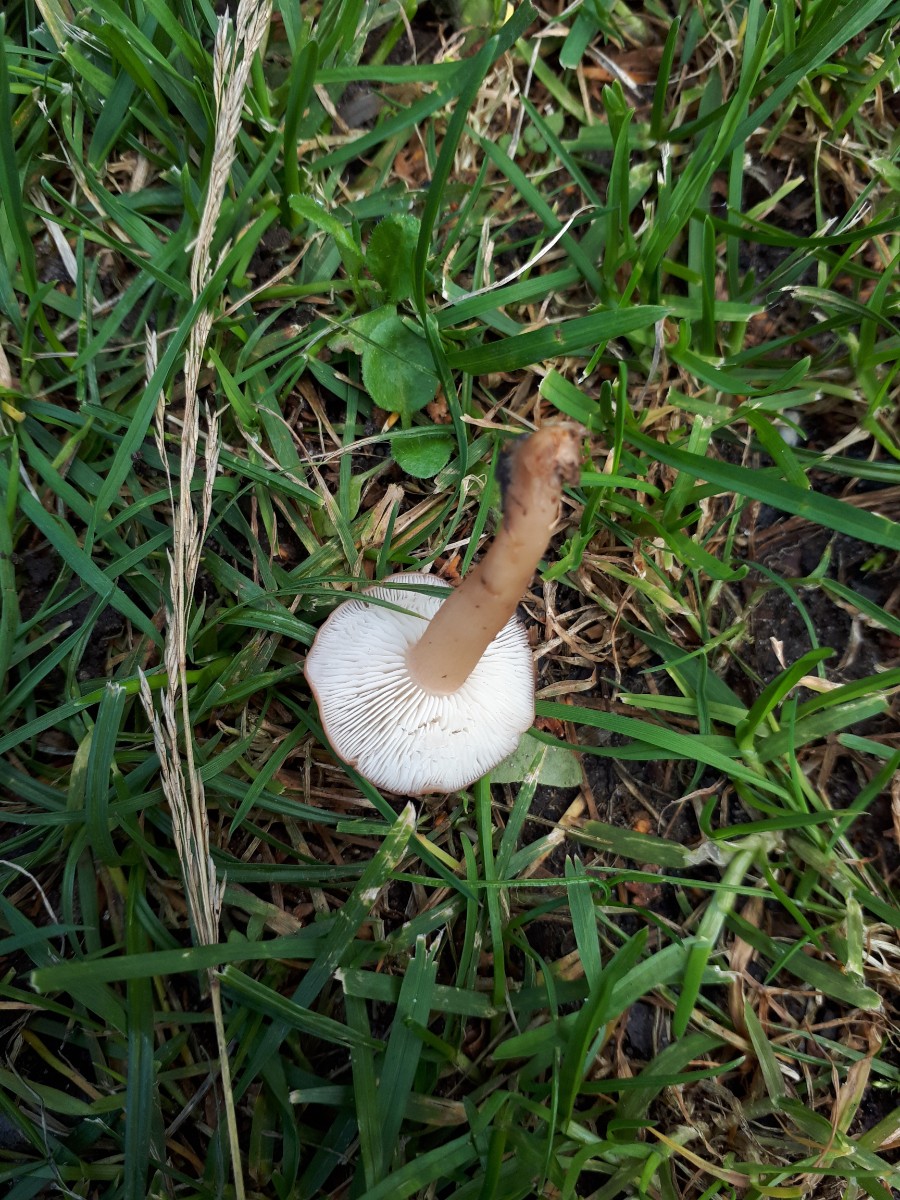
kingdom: Fungi
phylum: Basidiomycota
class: Agaricomycetes
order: Agaricales
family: Lyophyllaceae
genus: Calocybe
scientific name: Calocybe carnea
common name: rosa fagerhat
